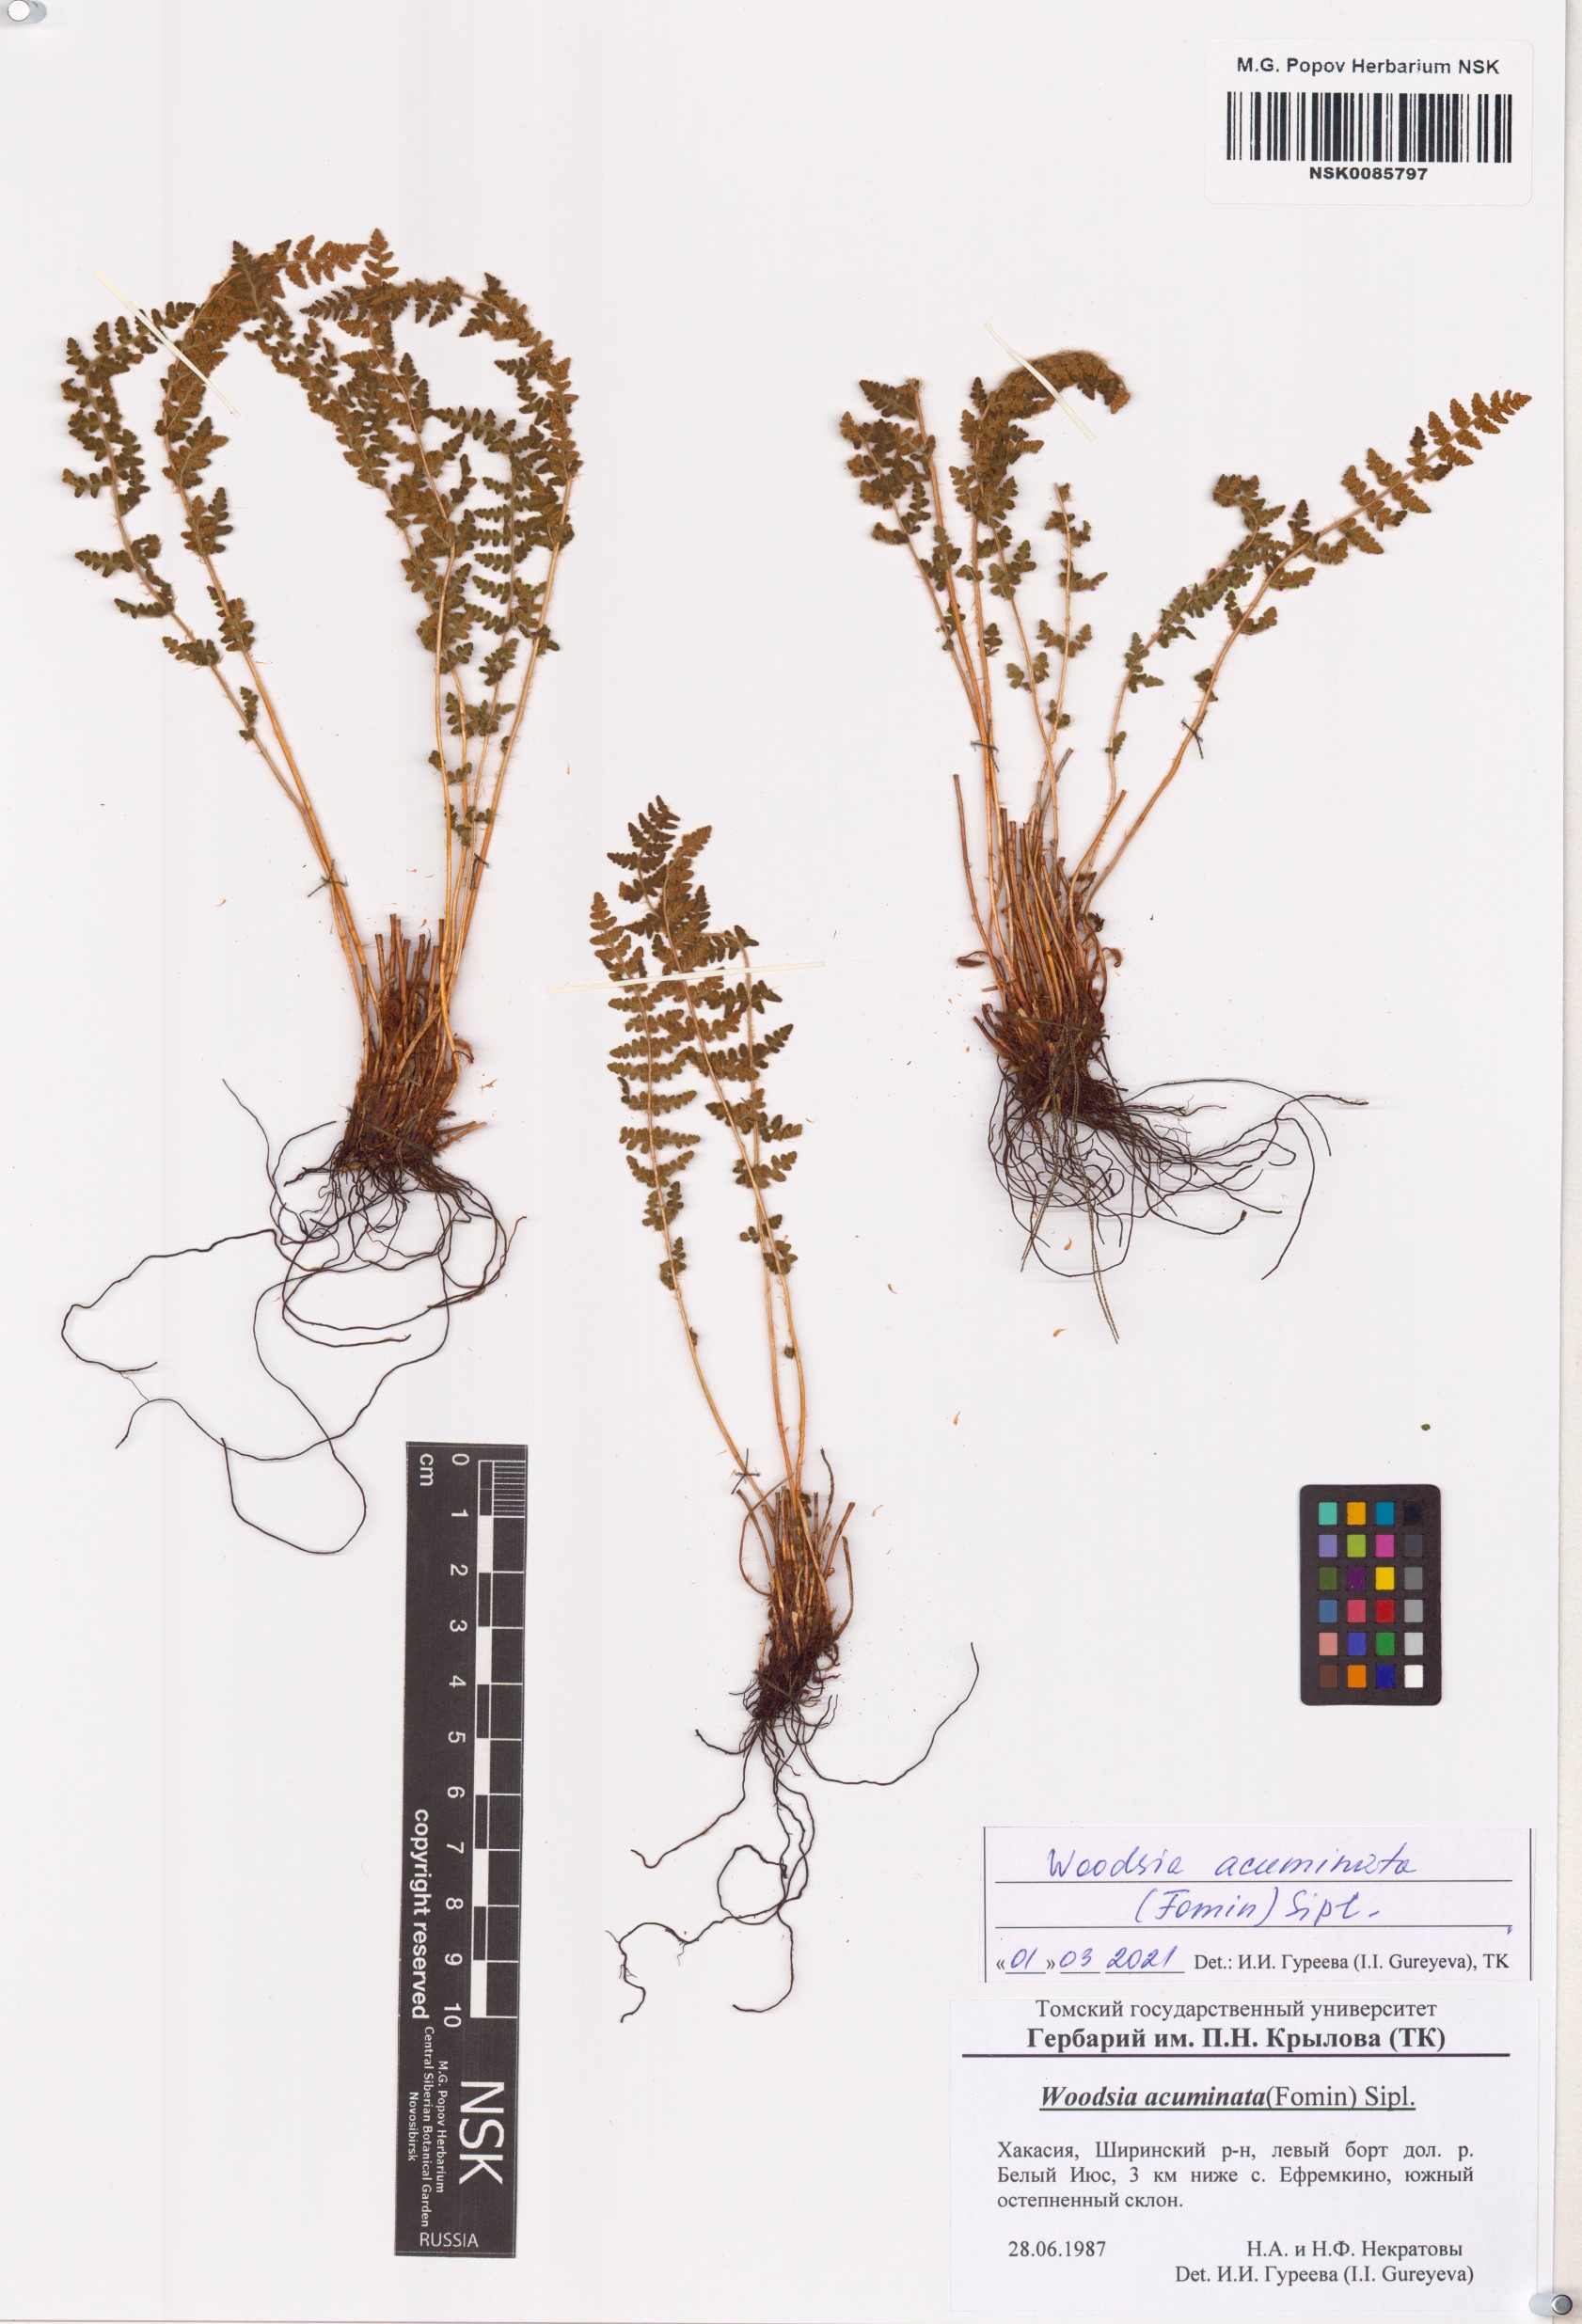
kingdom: Plantae
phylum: Tracheophyta
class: Polypodiopsida
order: Polypodiales
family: Woodsiaceae
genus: Woodsia
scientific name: Woodsia ilvensis
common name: Fragrant woodsia
